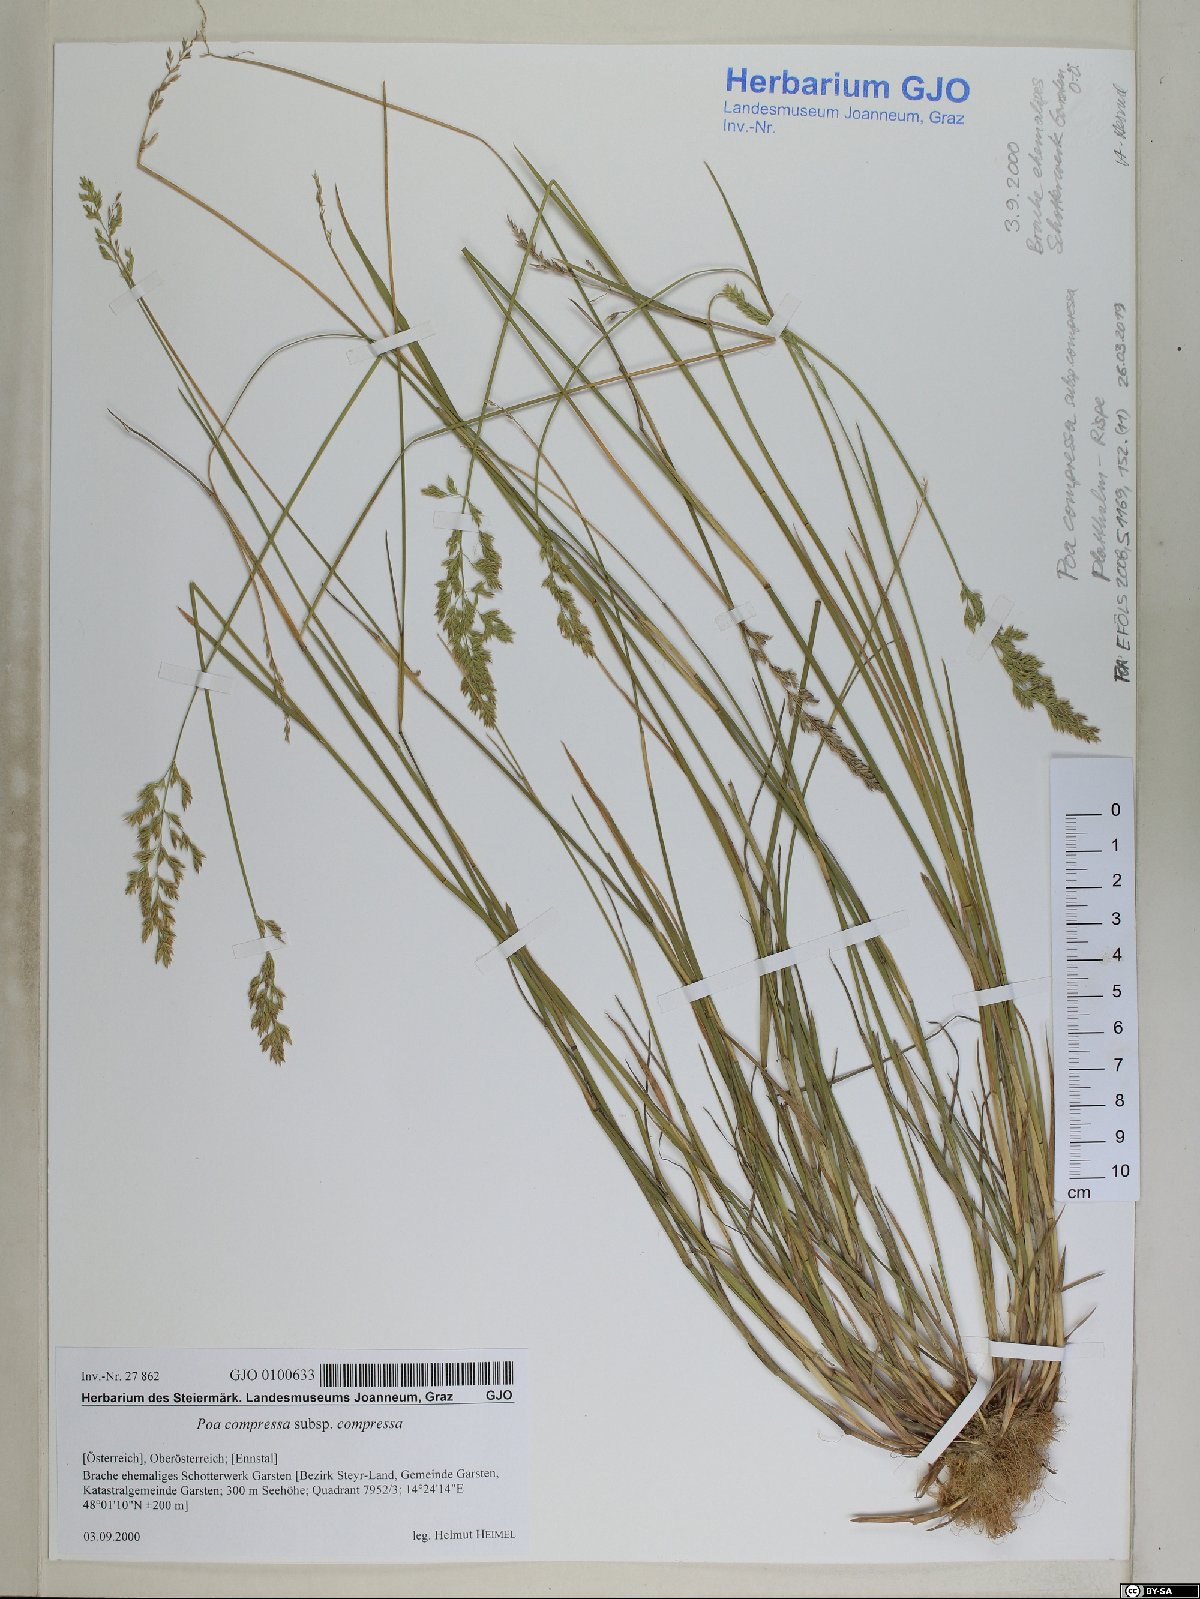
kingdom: Plantae
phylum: Tracheophyta
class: Liliopsida
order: Poales
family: Poaceae
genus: Poa
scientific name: Poa compressa
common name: Canada bluegrass
